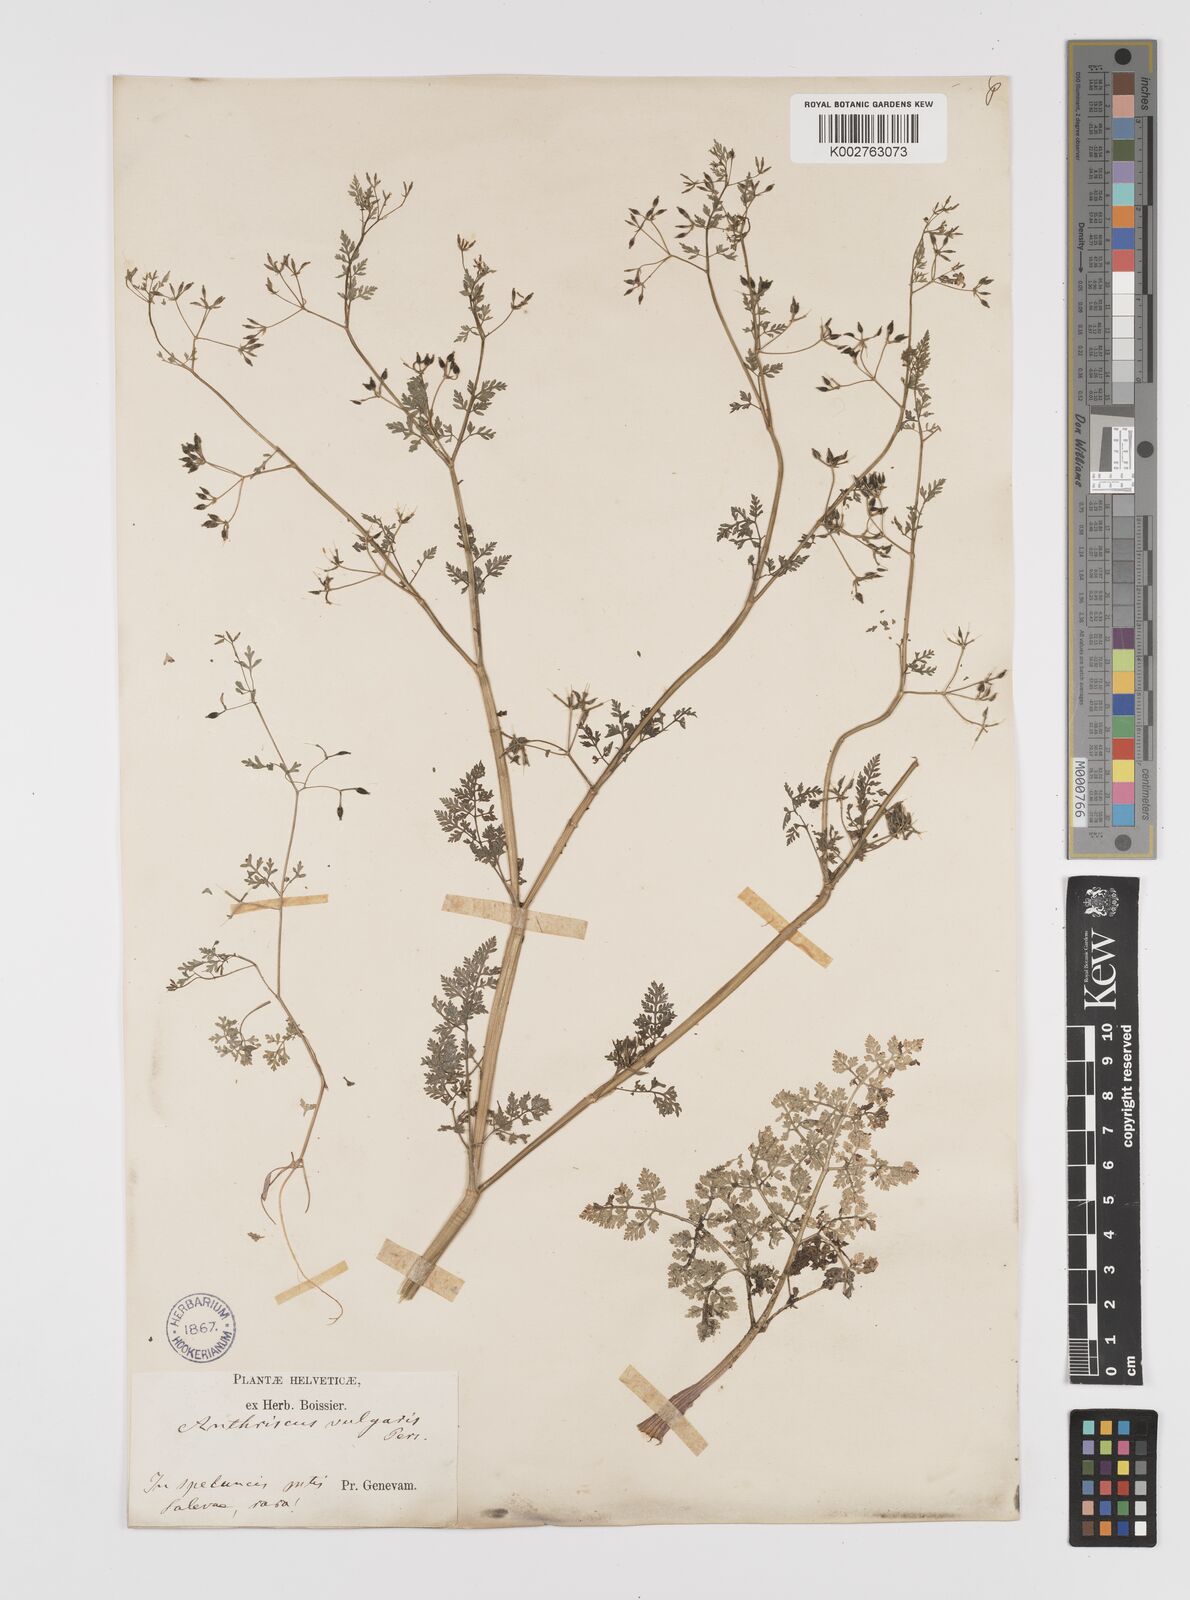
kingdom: Plantae
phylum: Tracheophyta
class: Magnoliopsida
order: Apiales
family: Apiaceae
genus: Anthriscus
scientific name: Anthriscus caucalis
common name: Bur chervil
